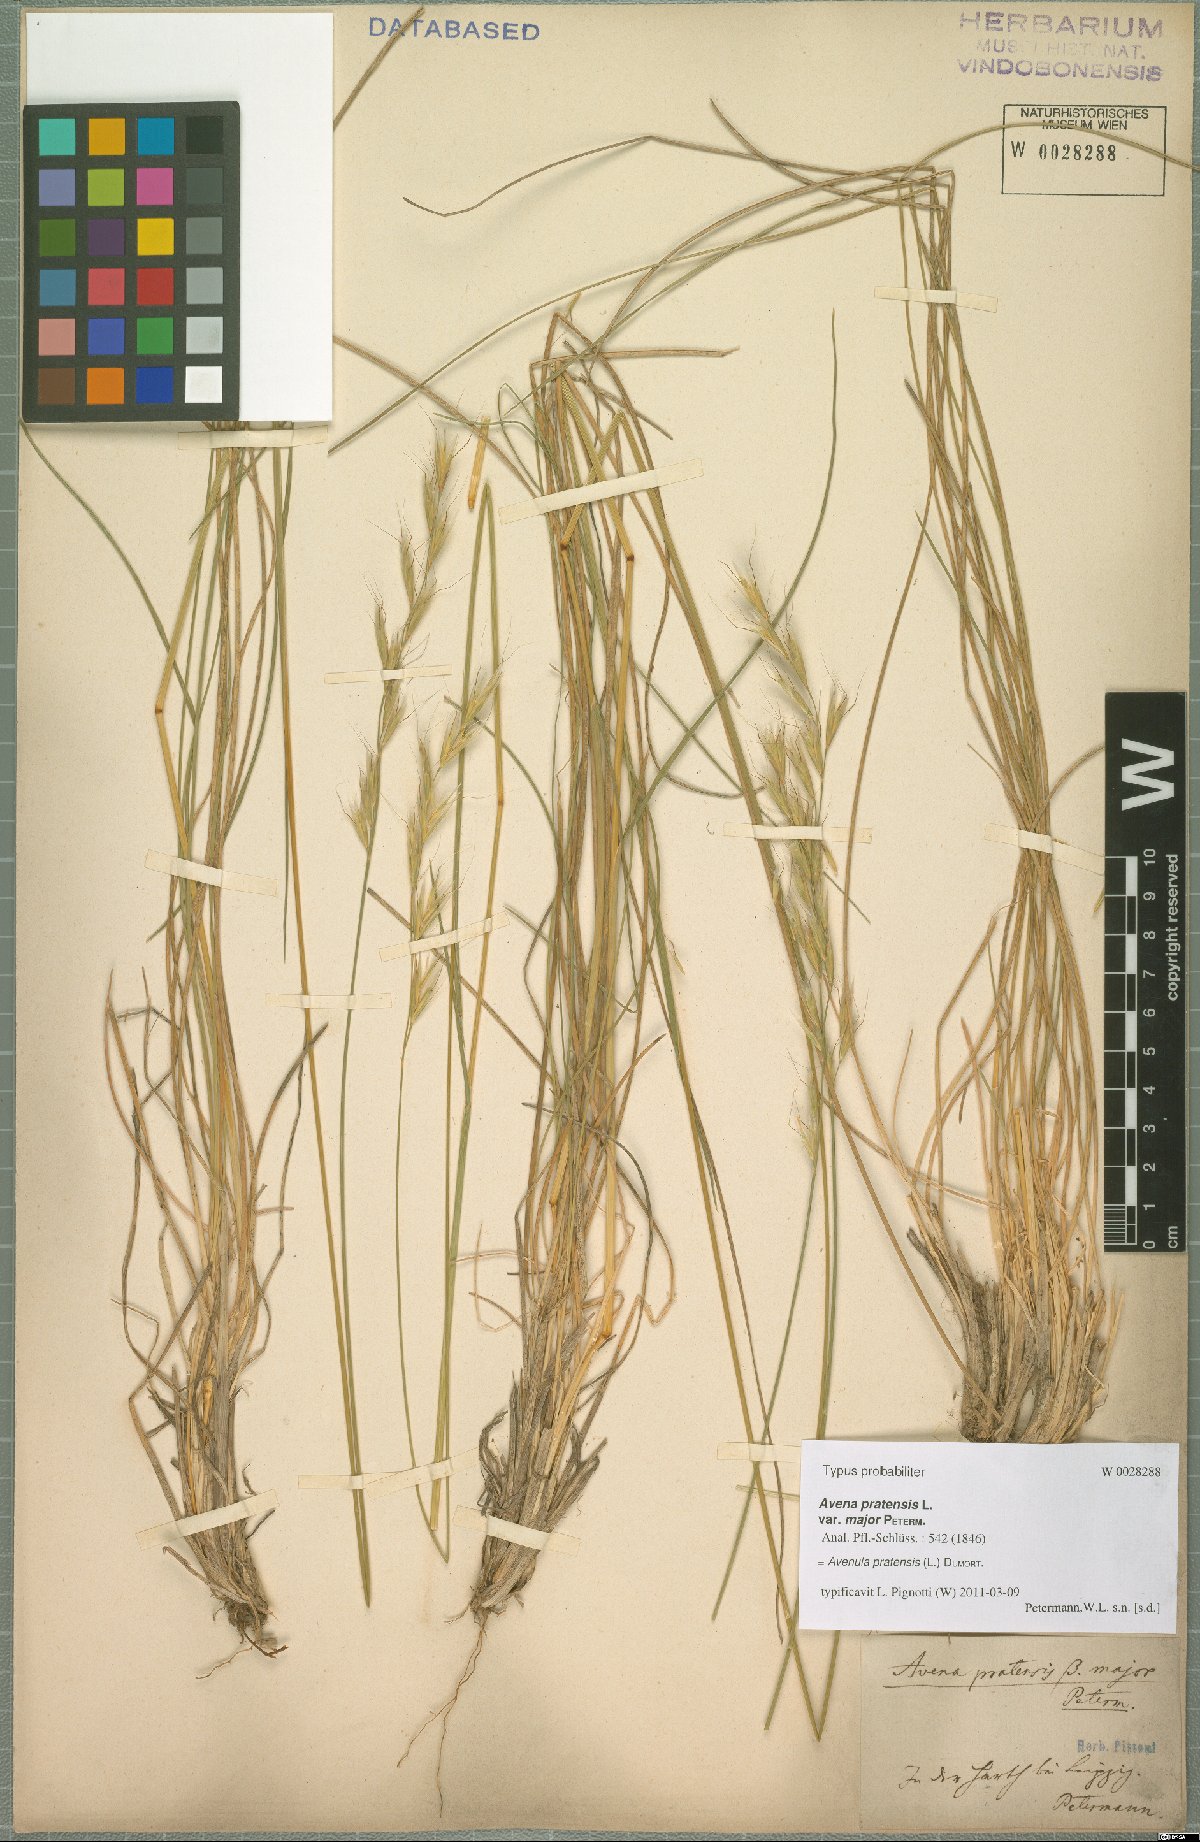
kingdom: Plantae
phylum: Tracheophyta
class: Liliopsida
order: Poales
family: Poaceae
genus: Helictochloa
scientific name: Helictochloa pratensis
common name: Meadow oat grass
